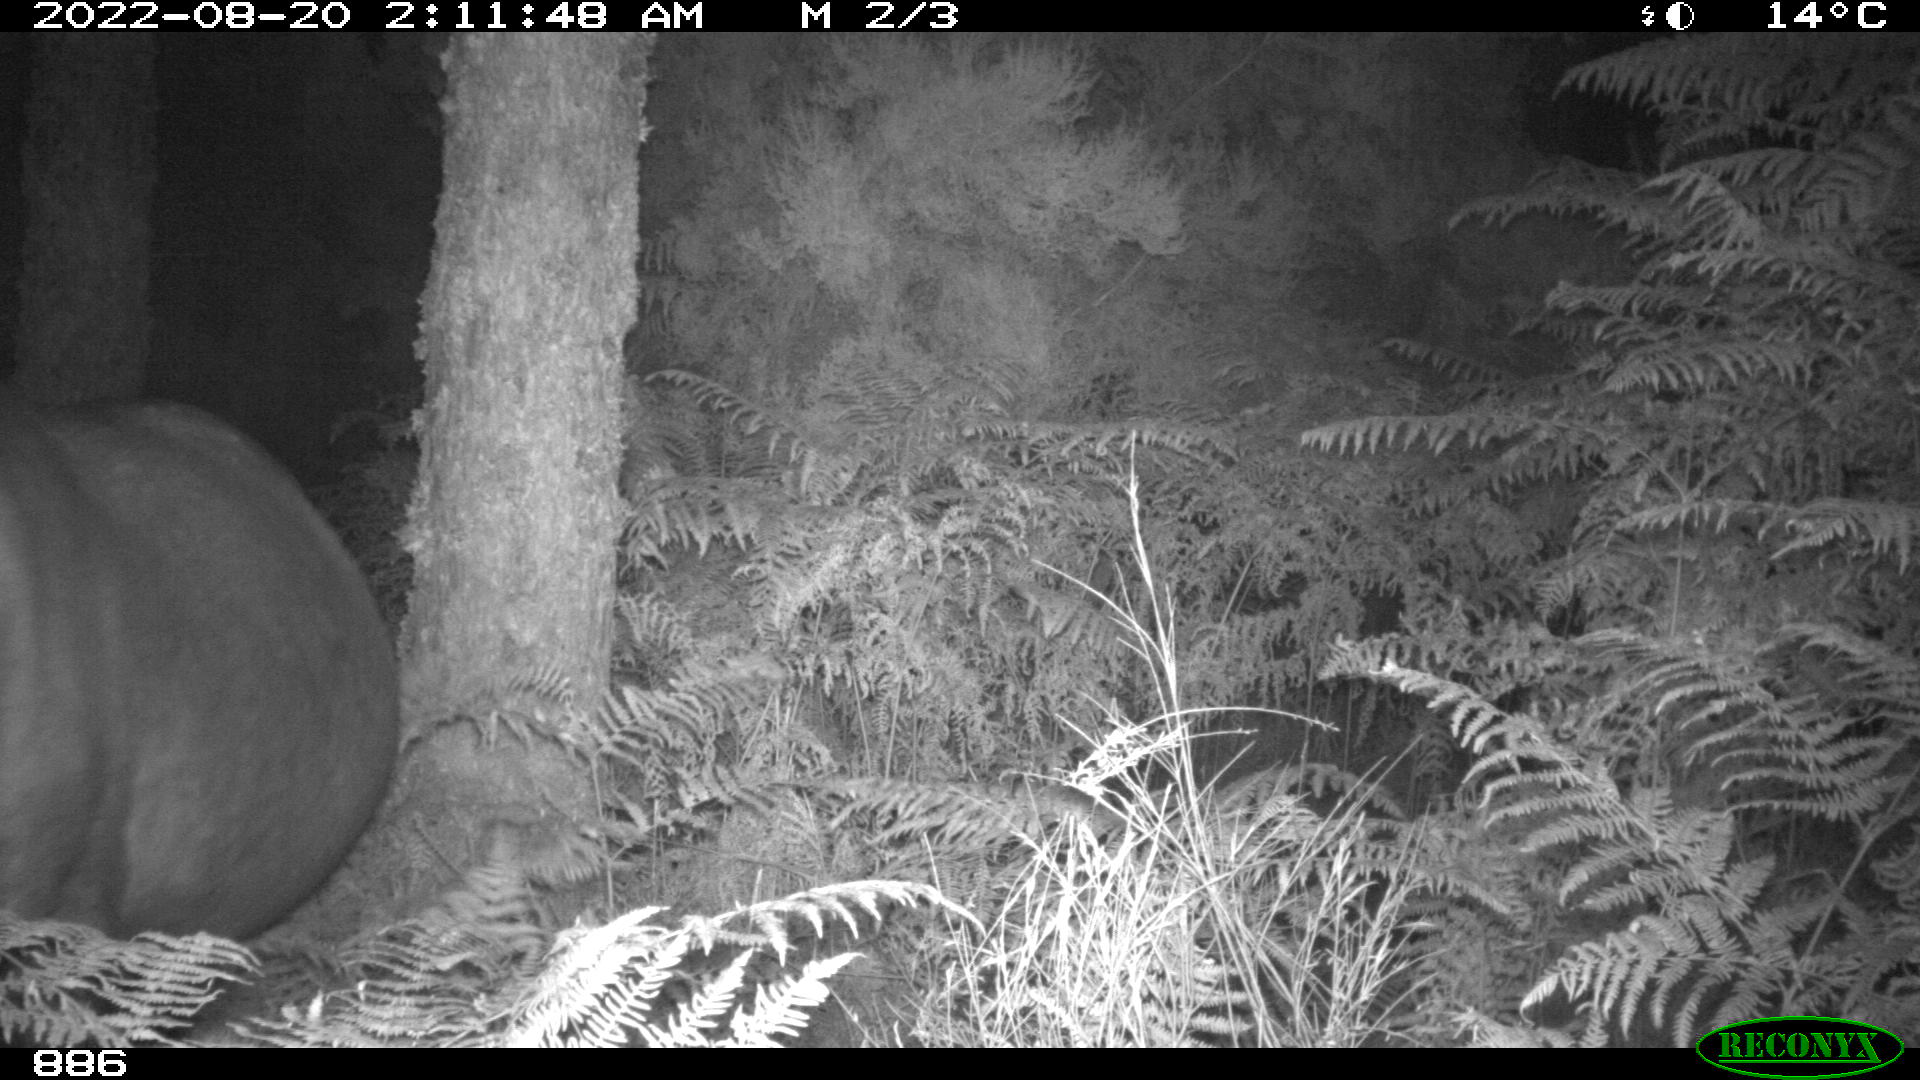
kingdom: Animalia
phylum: Chordata
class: Mammalia
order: Perissodactyla
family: Equidae
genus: Equus
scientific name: Equus caballus
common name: Horse
